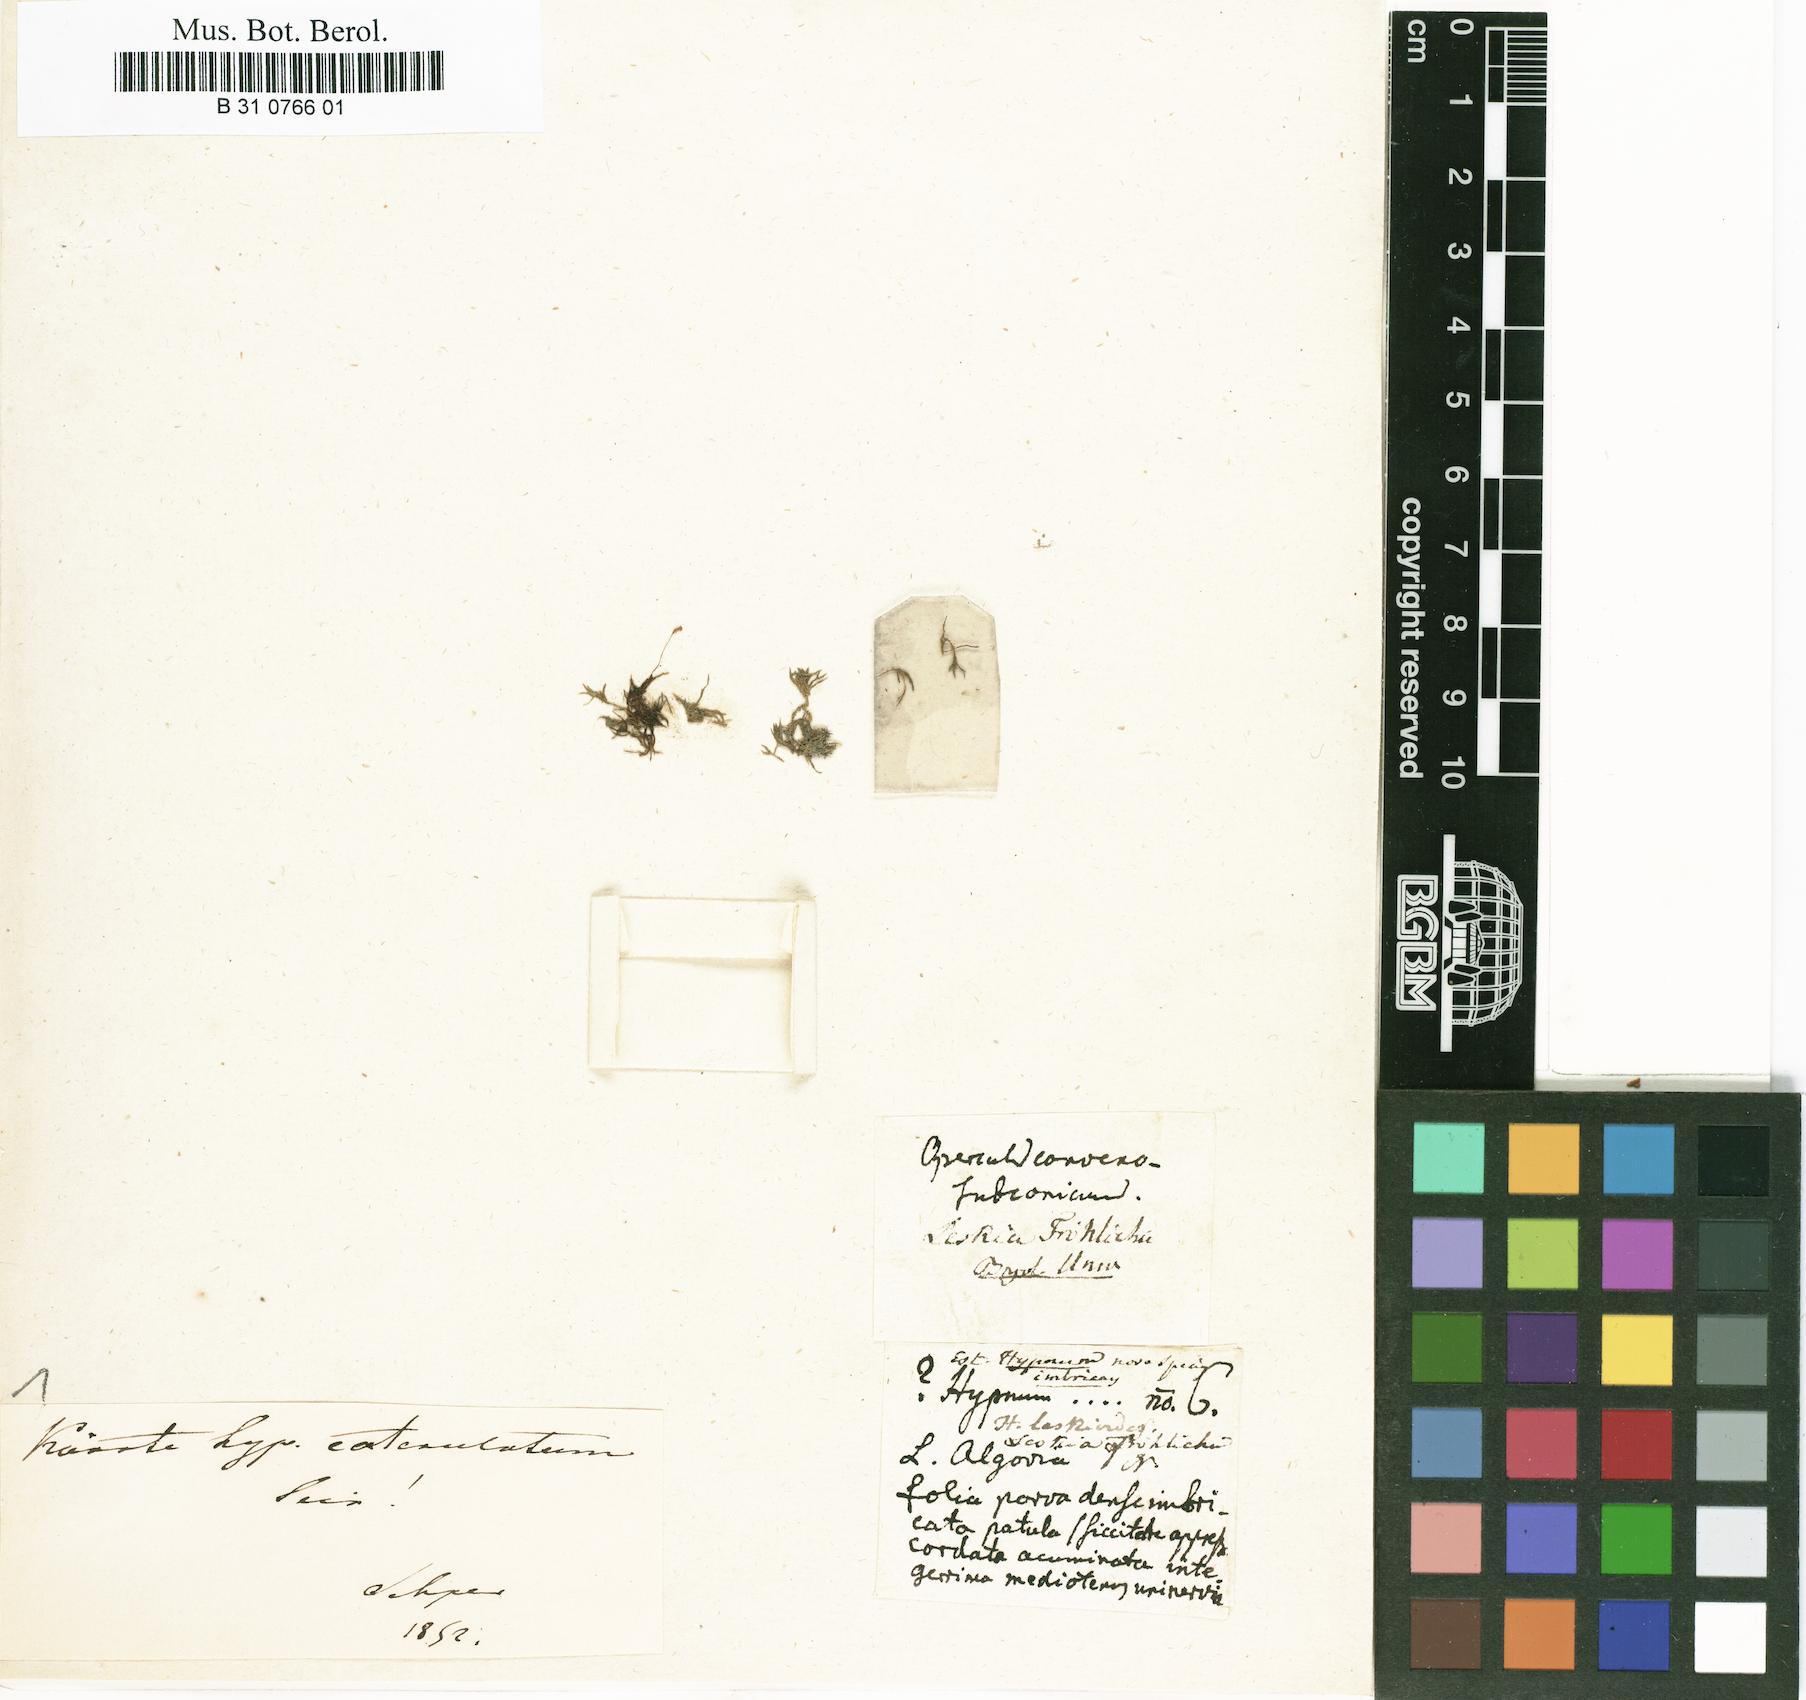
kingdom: Plantae
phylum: Bryophyta
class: Bryopsida
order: Hypnales
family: Leskeaceae
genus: Leskea
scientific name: Leskea polycarpa
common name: Many-fruited leske's moss
